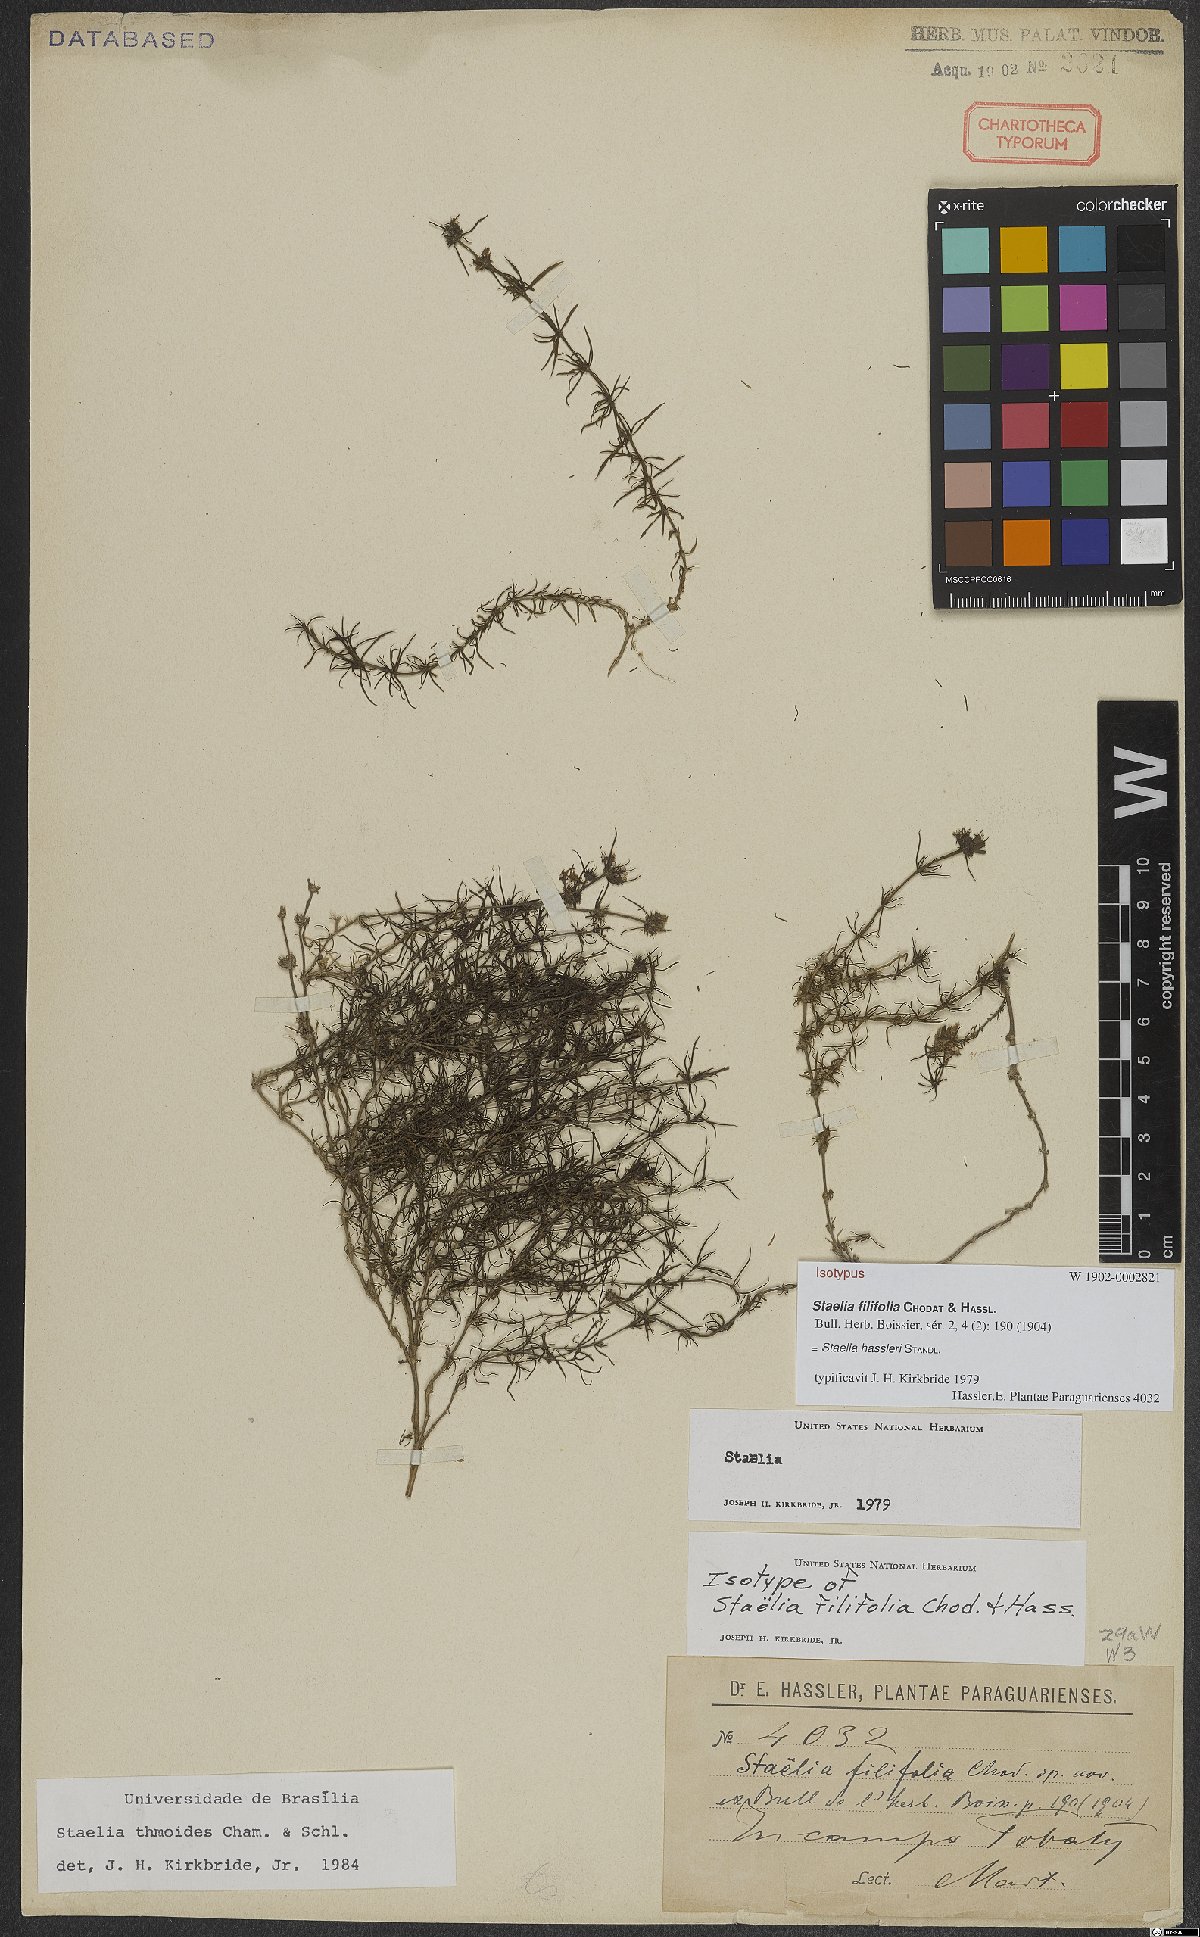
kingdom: Plantae
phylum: Tracheophyta
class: Magnoliopsida
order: Gentianales
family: Rubiaceae
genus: Staelia
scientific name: Staelia hassleri
